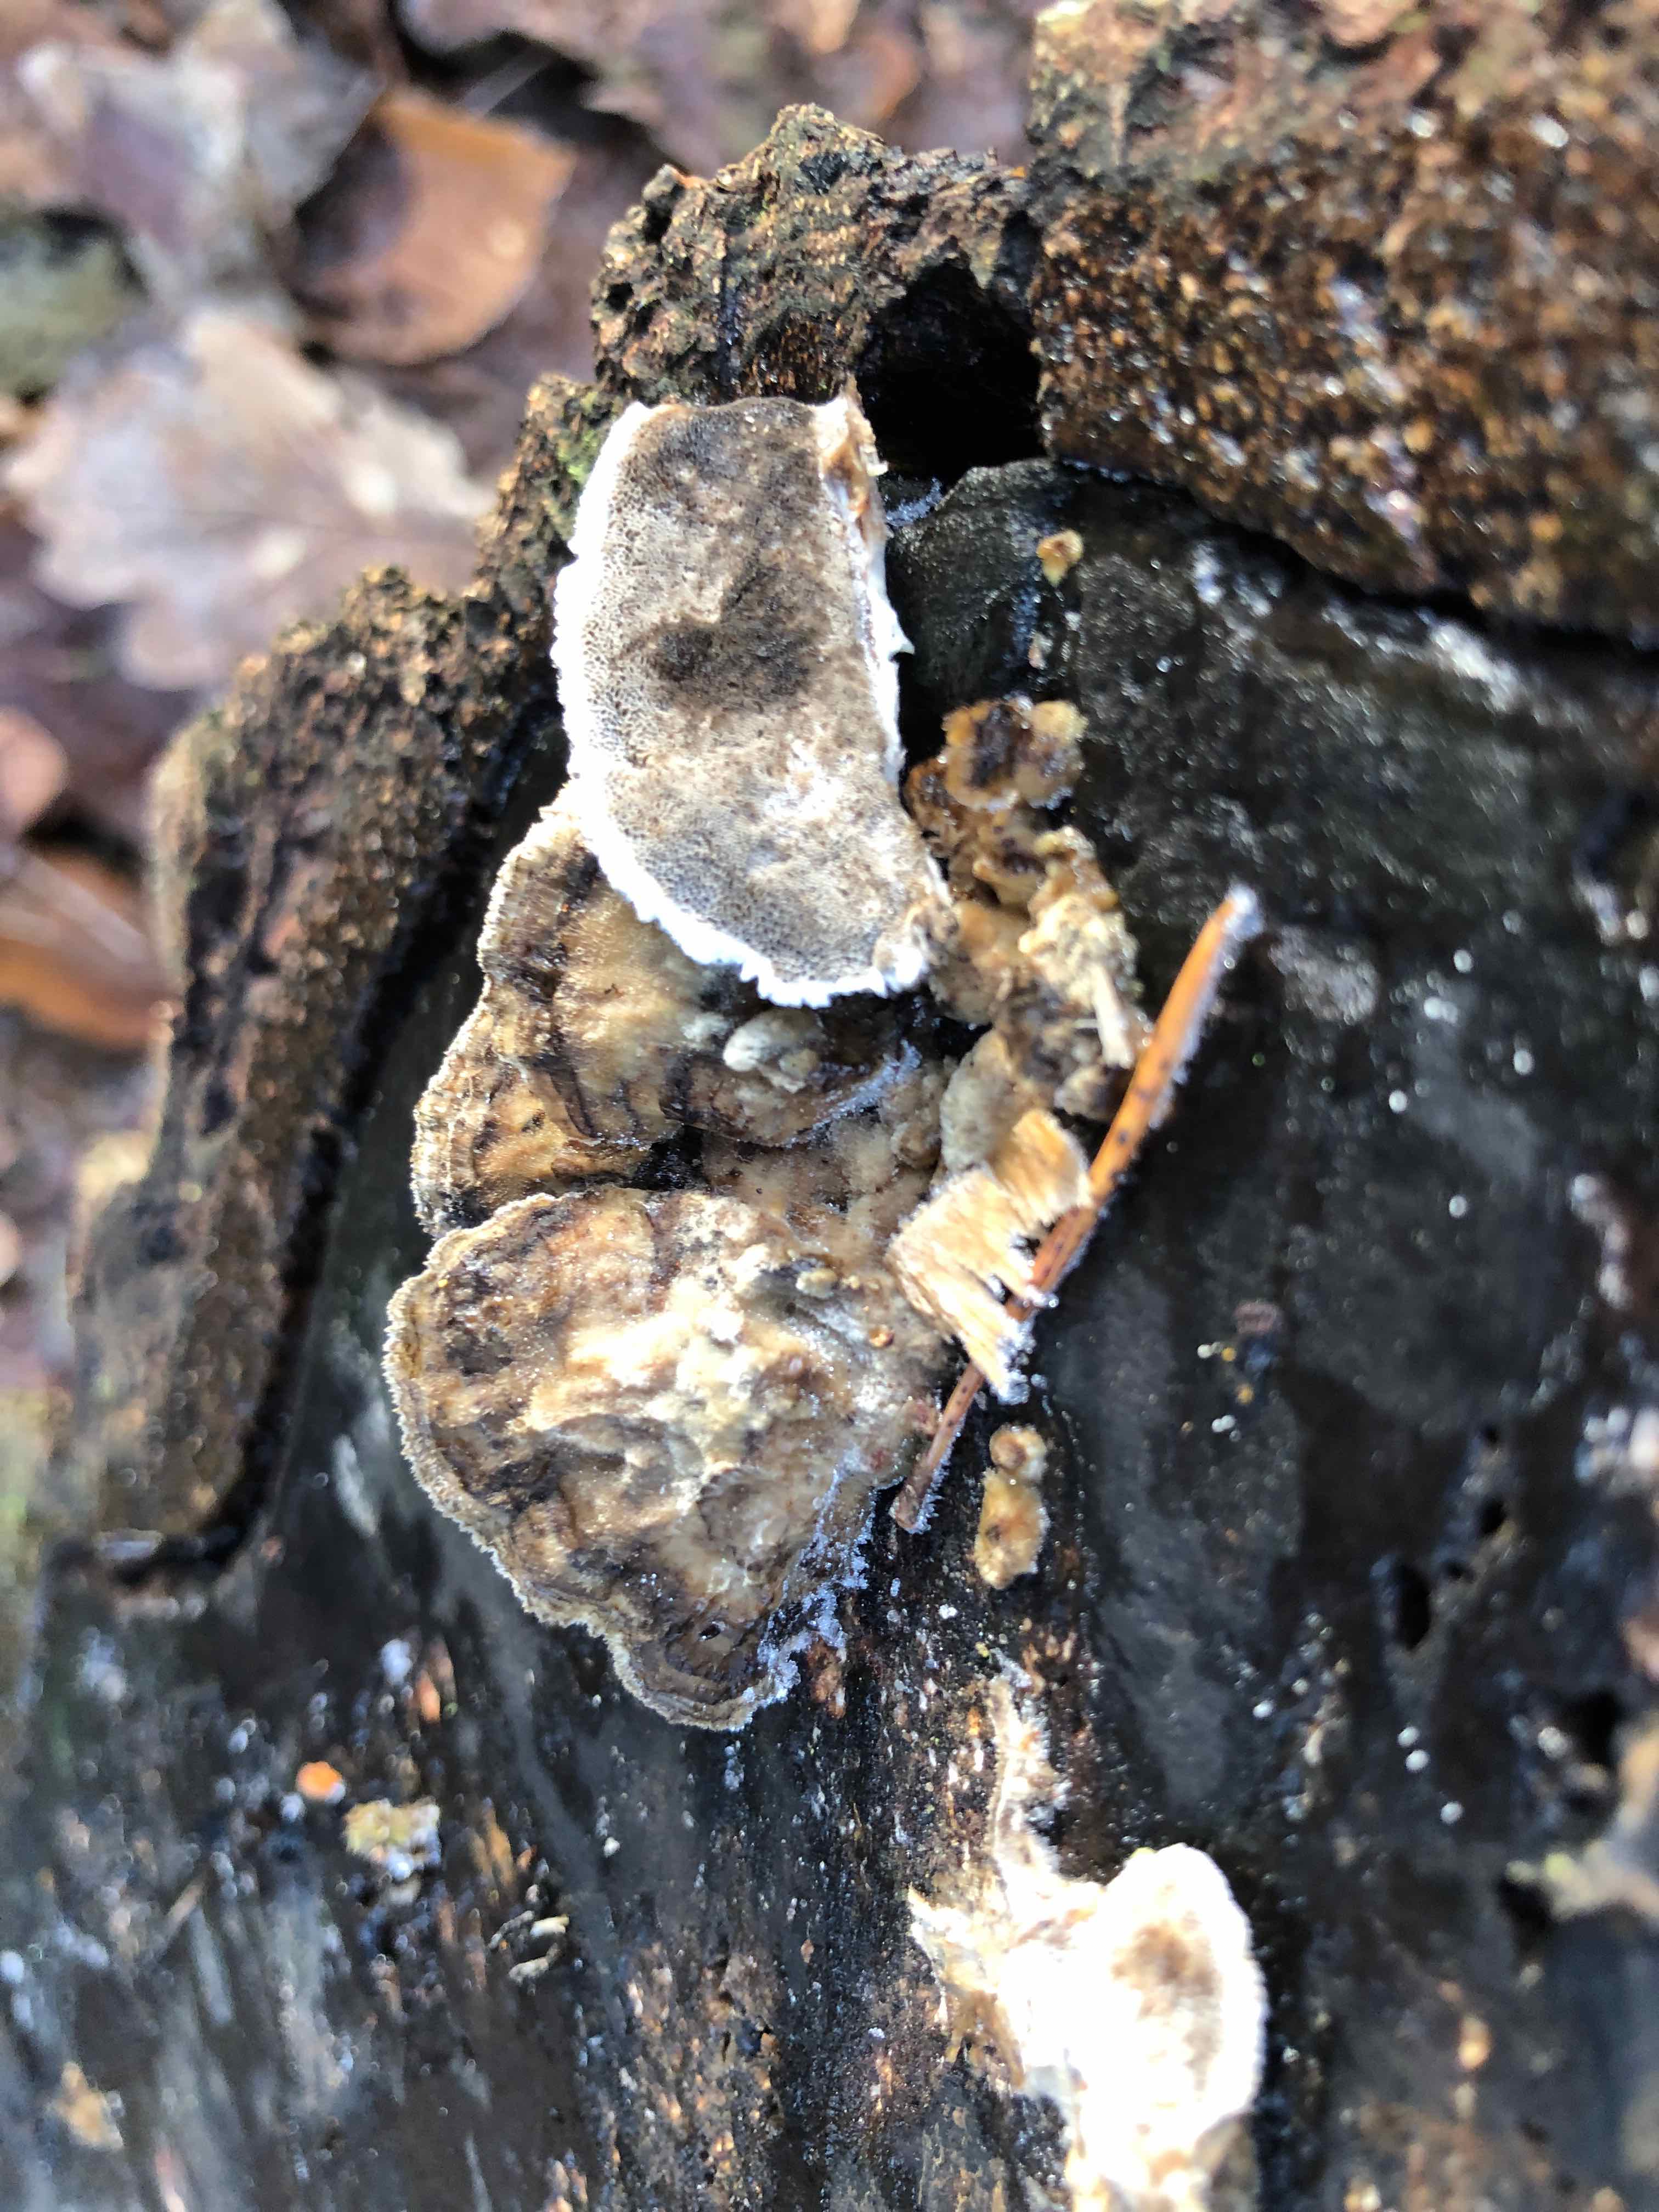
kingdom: Fungi
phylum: Basidiomycota
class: Agaricomycetes
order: Polyporales
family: Phanerochaetaceae
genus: Bjerkandera
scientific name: Bjerkandera adusta
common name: sveden sodporesvamp
